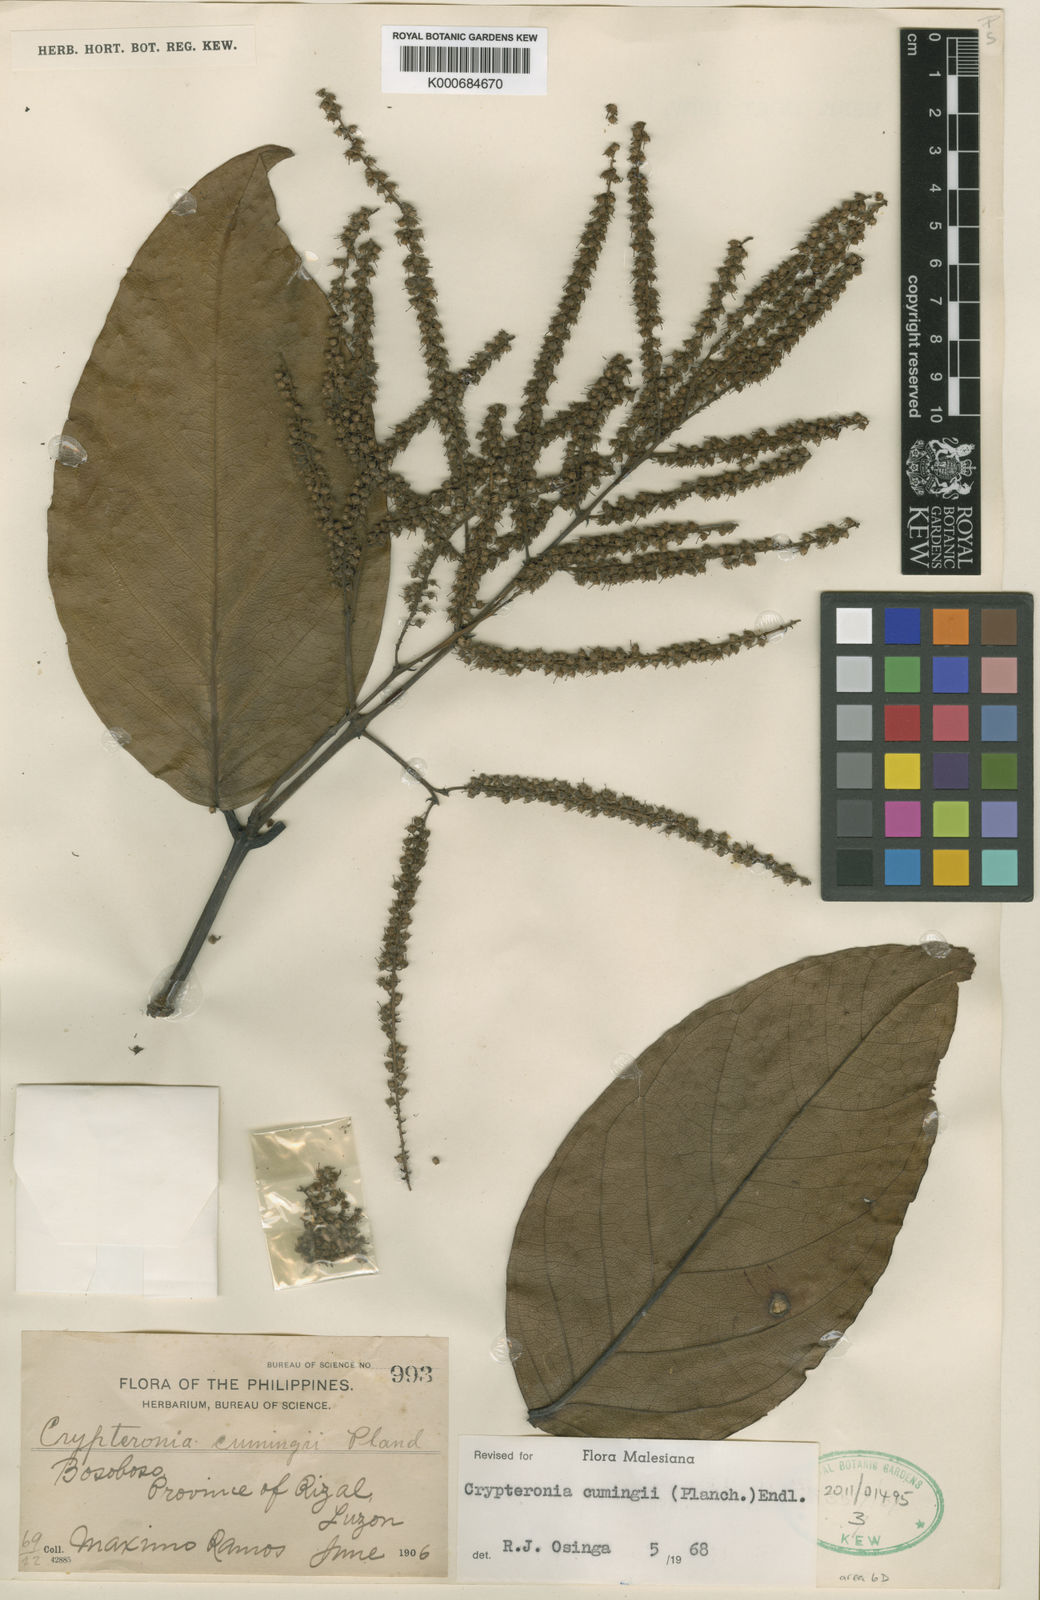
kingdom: Plantae
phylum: Tracheophyta
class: Magnoliopsida
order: Myrtales
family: Crypteroniaceae
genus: Crypteronia
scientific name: Crypteronia cumingii
